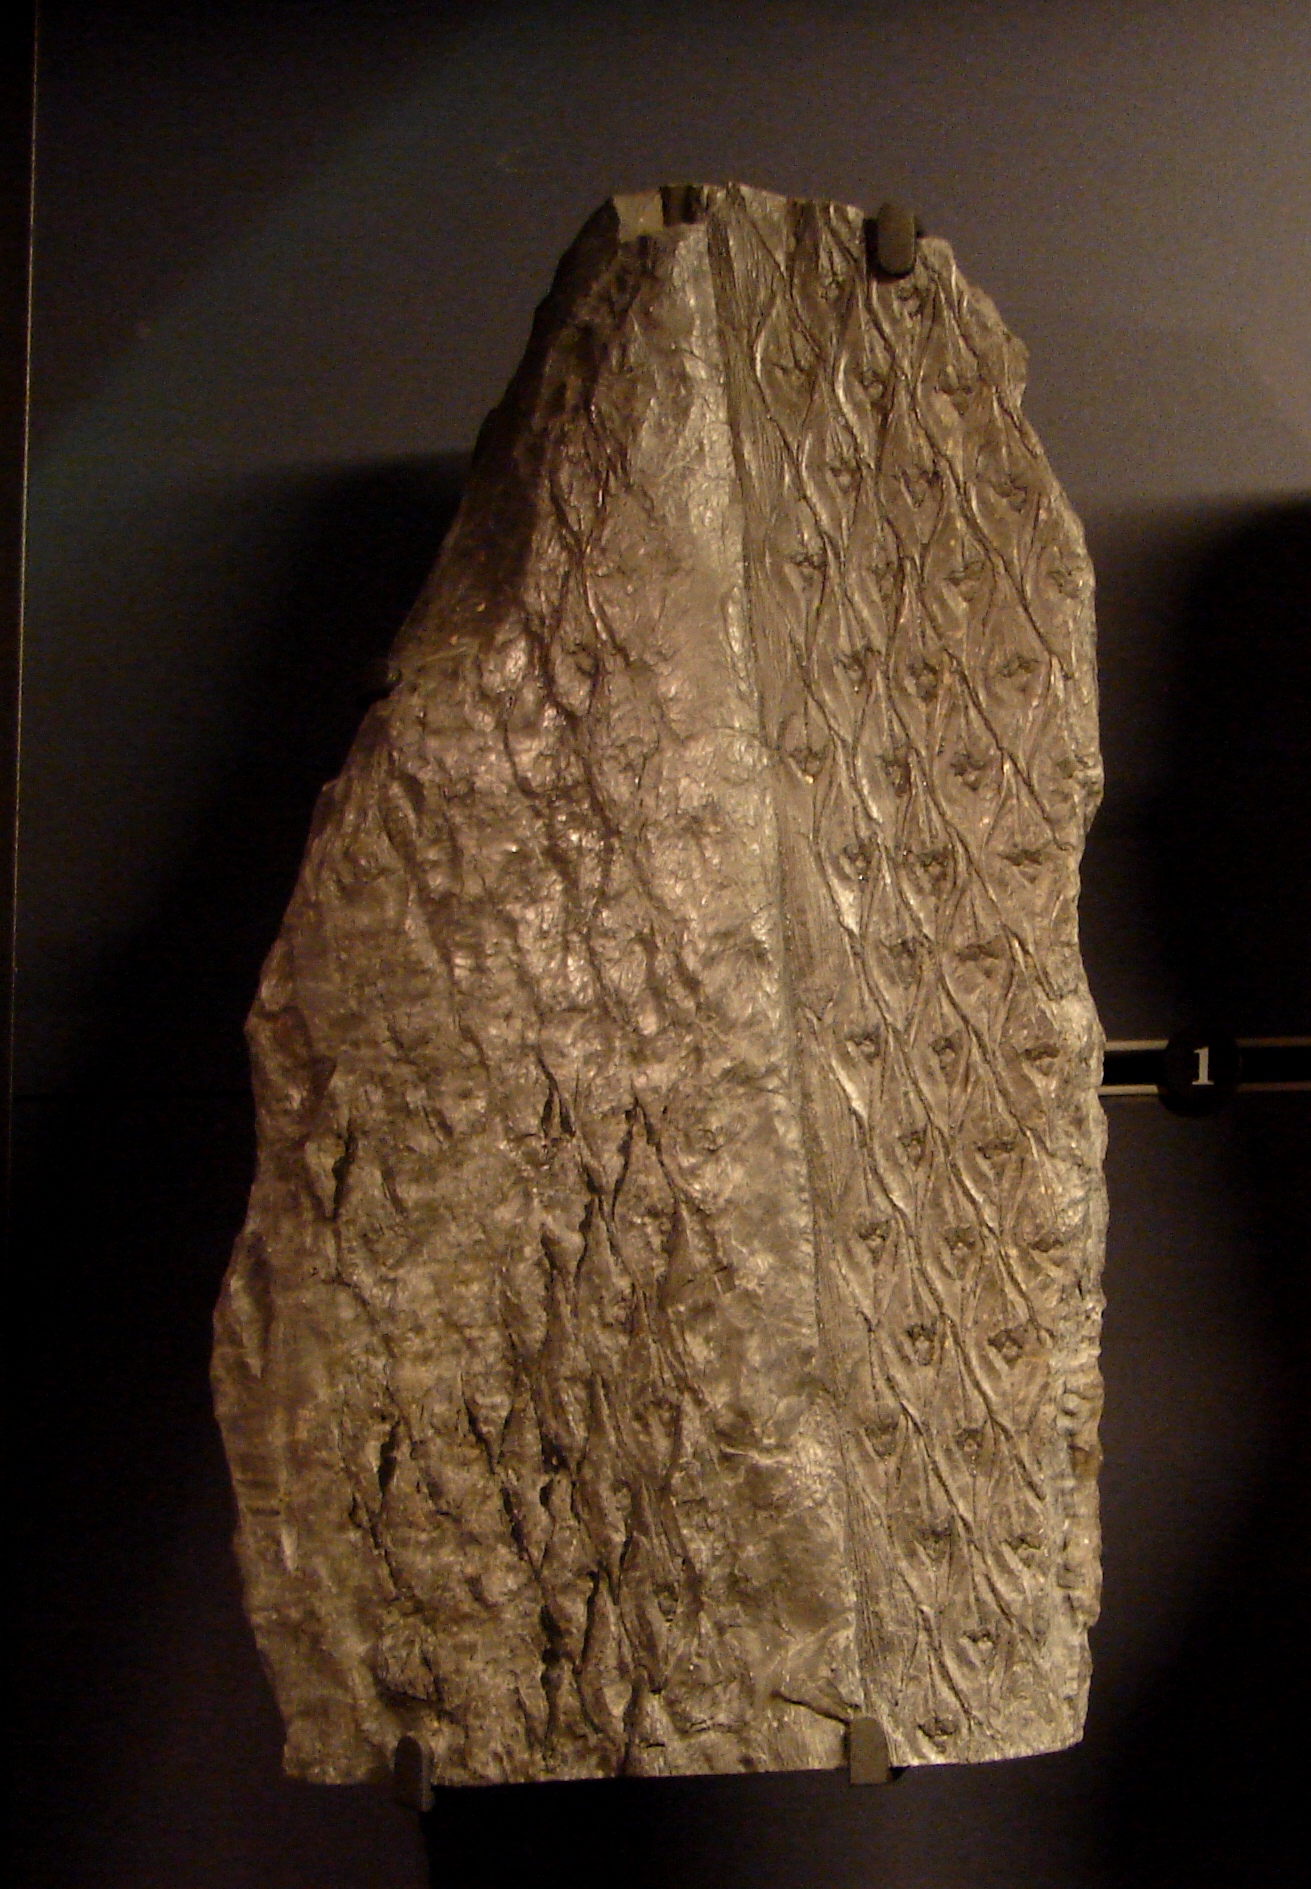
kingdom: Plantae
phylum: Tracheophyta
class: Lycopodiopsida
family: Lepidodendraceae
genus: Lepidodendron
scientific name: Lepidodendron obovatum
